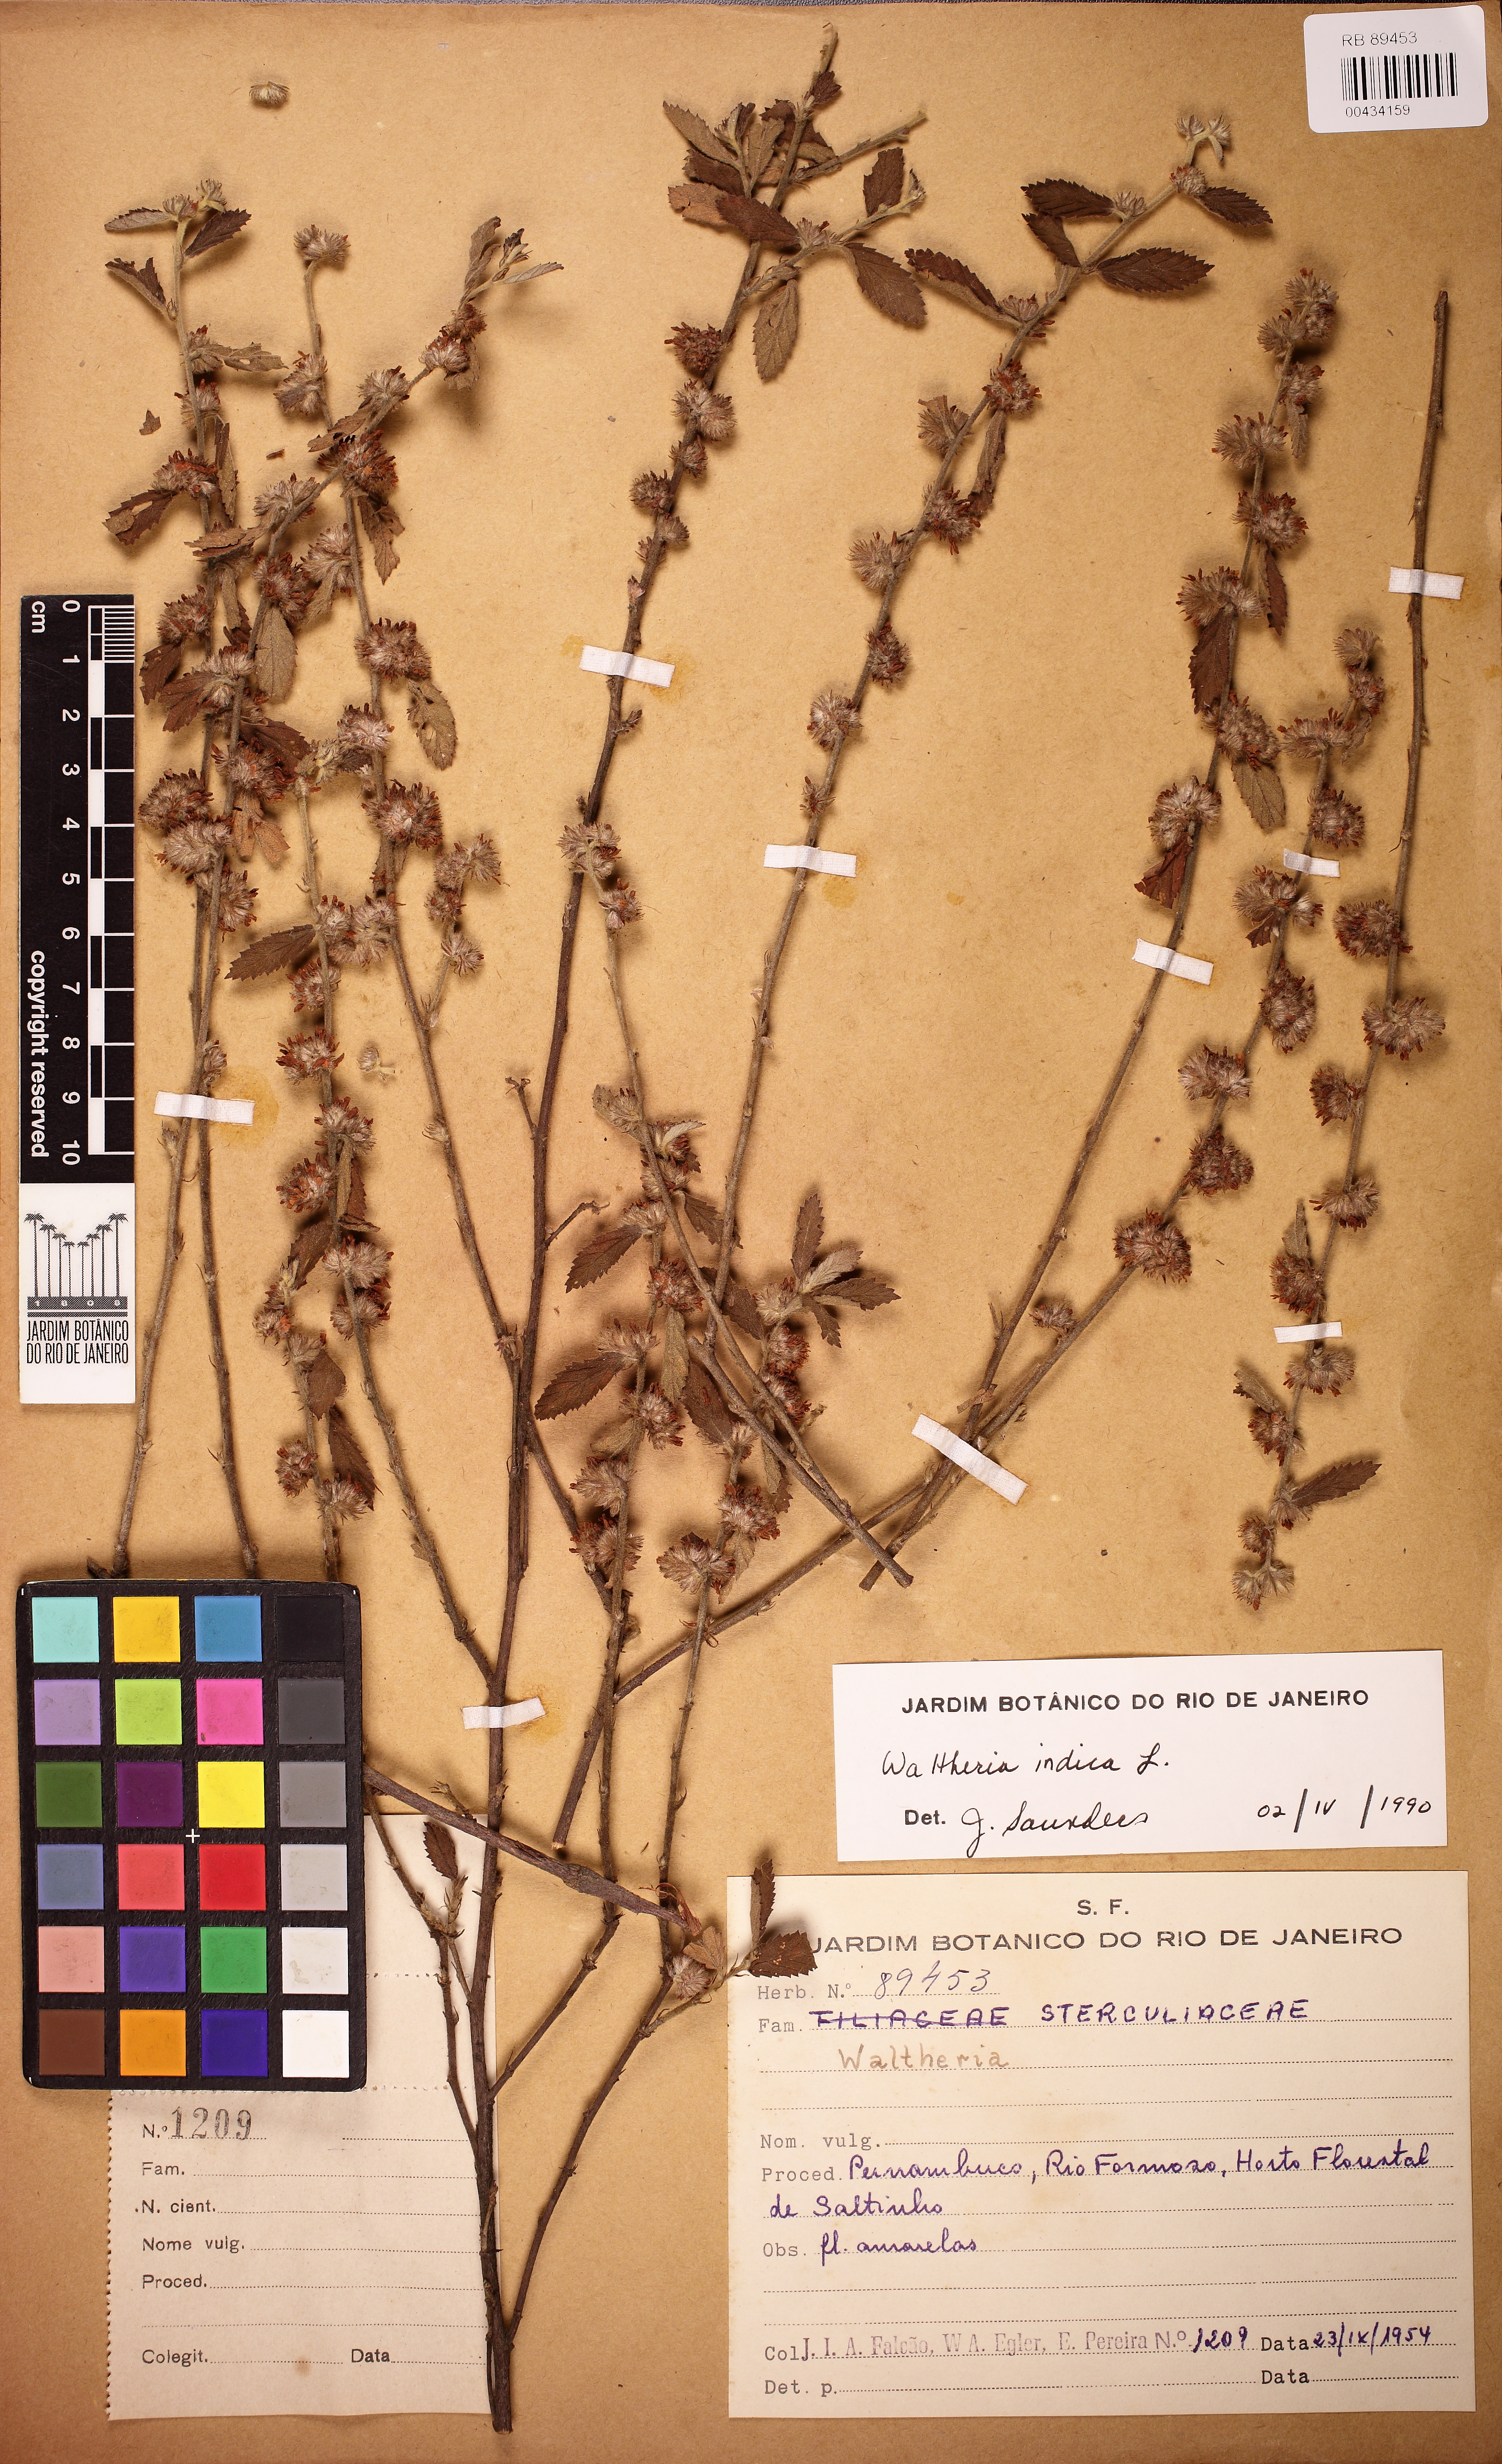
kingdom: Plantae
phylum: Tracheophyta
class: Magnoliopsida
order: Malvales
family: Malvaceae
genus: Waltheria
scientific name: Waltheria indica
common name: Leather-coat
